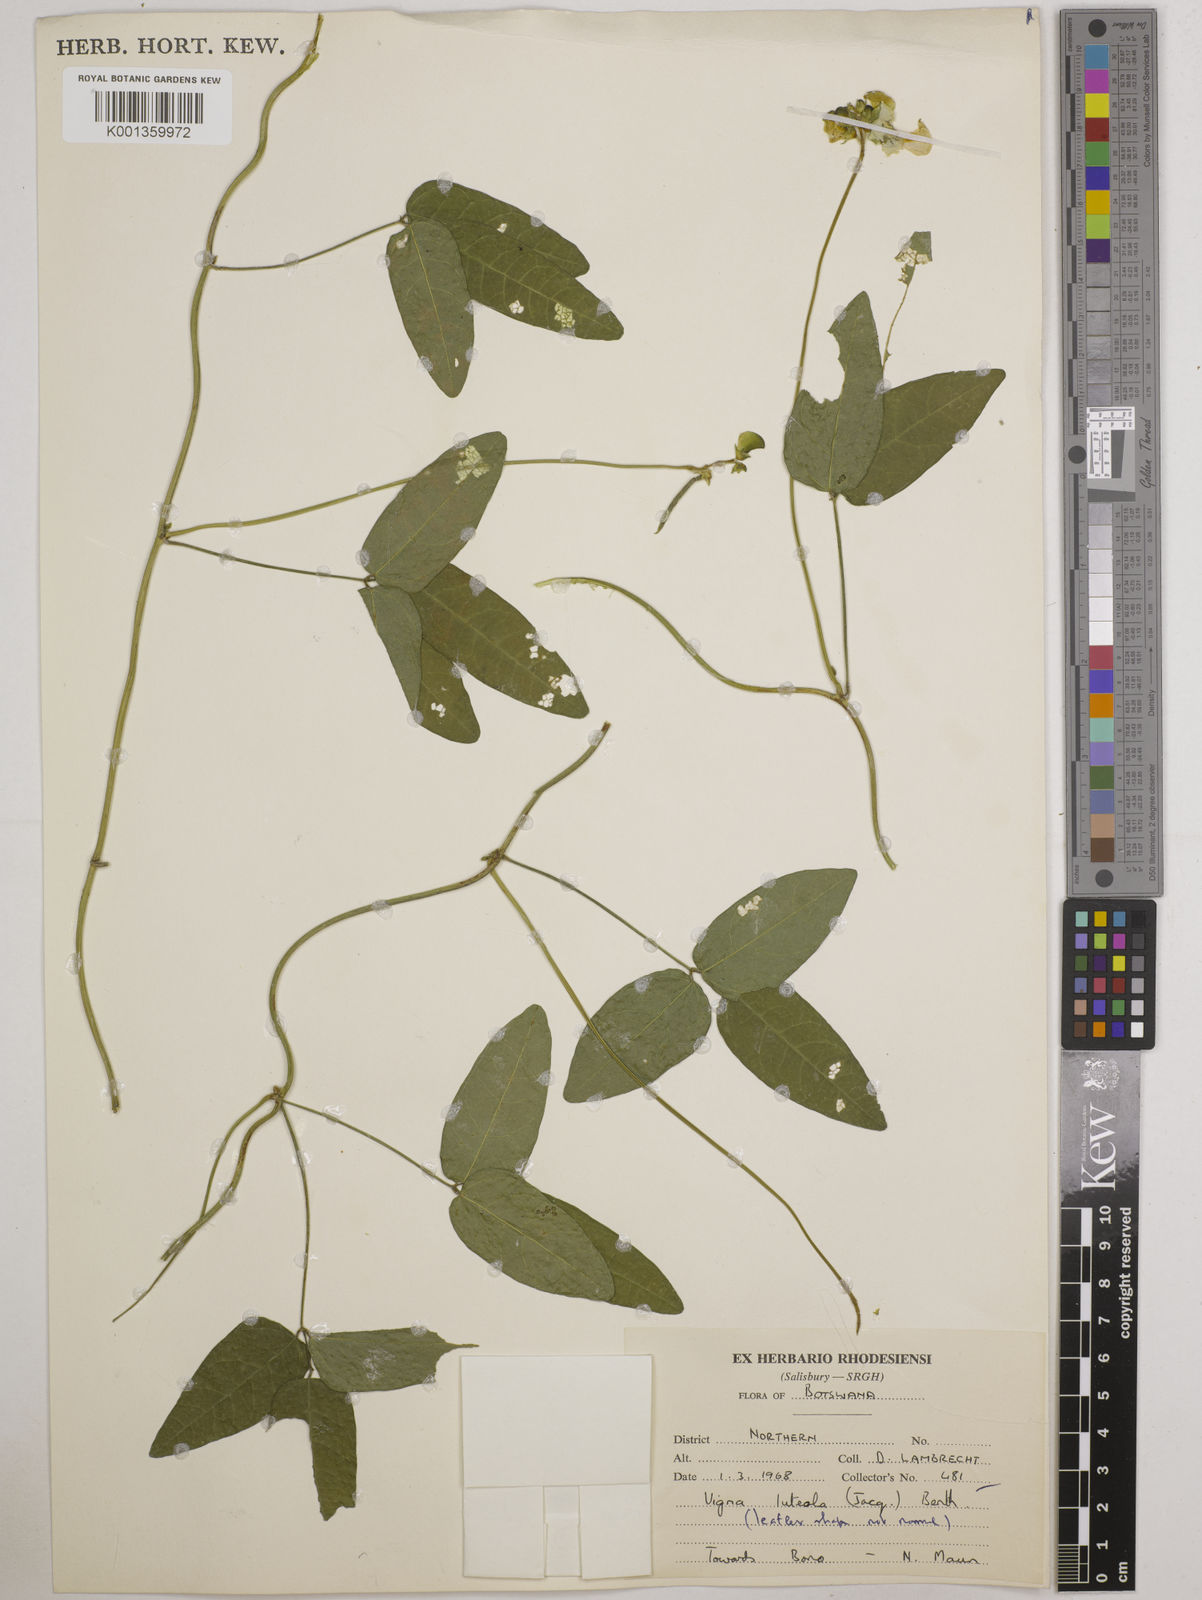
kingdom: Plantae
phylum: Tracheophyta
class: Magnoliopsida
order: Fabales
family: Fabaceae
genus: Vigna
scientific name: Vigna luteola
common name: Hairypod cowpea
